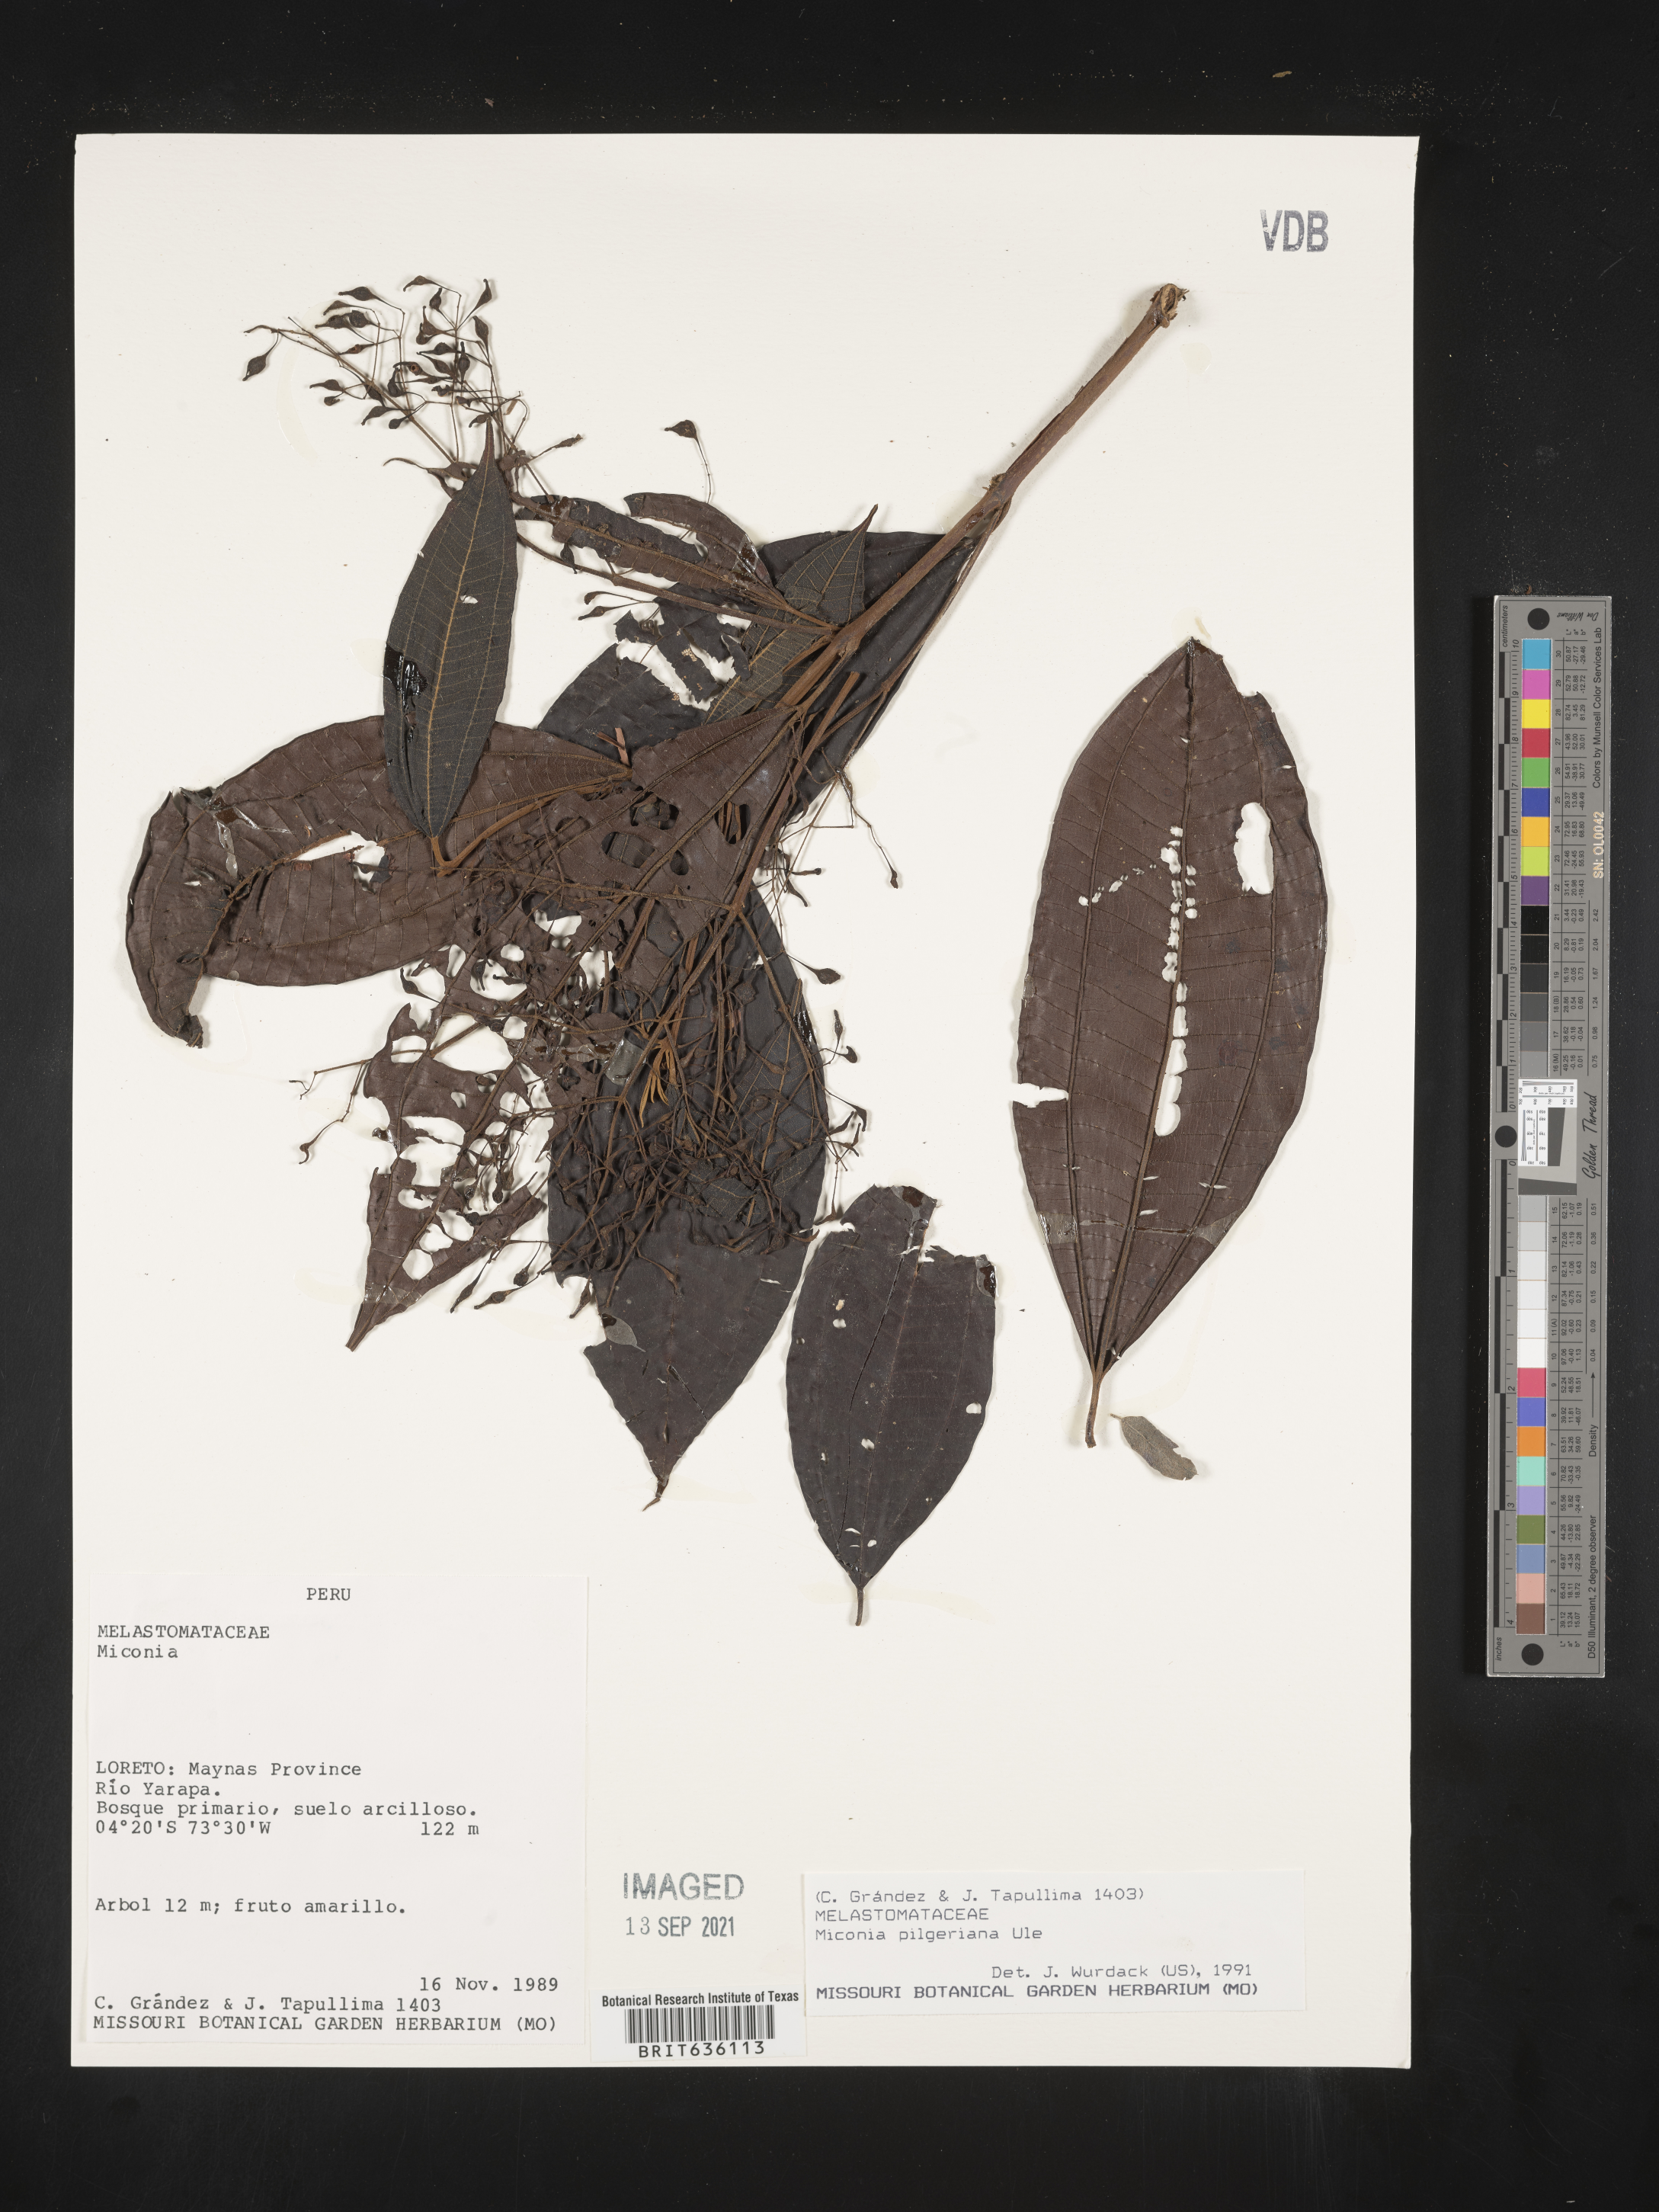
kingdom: Plantae
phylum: Tracheophyta
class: Magnoliopsida
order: Myrtales
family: Melastomataceae
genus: Miconia
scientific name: Miconia
